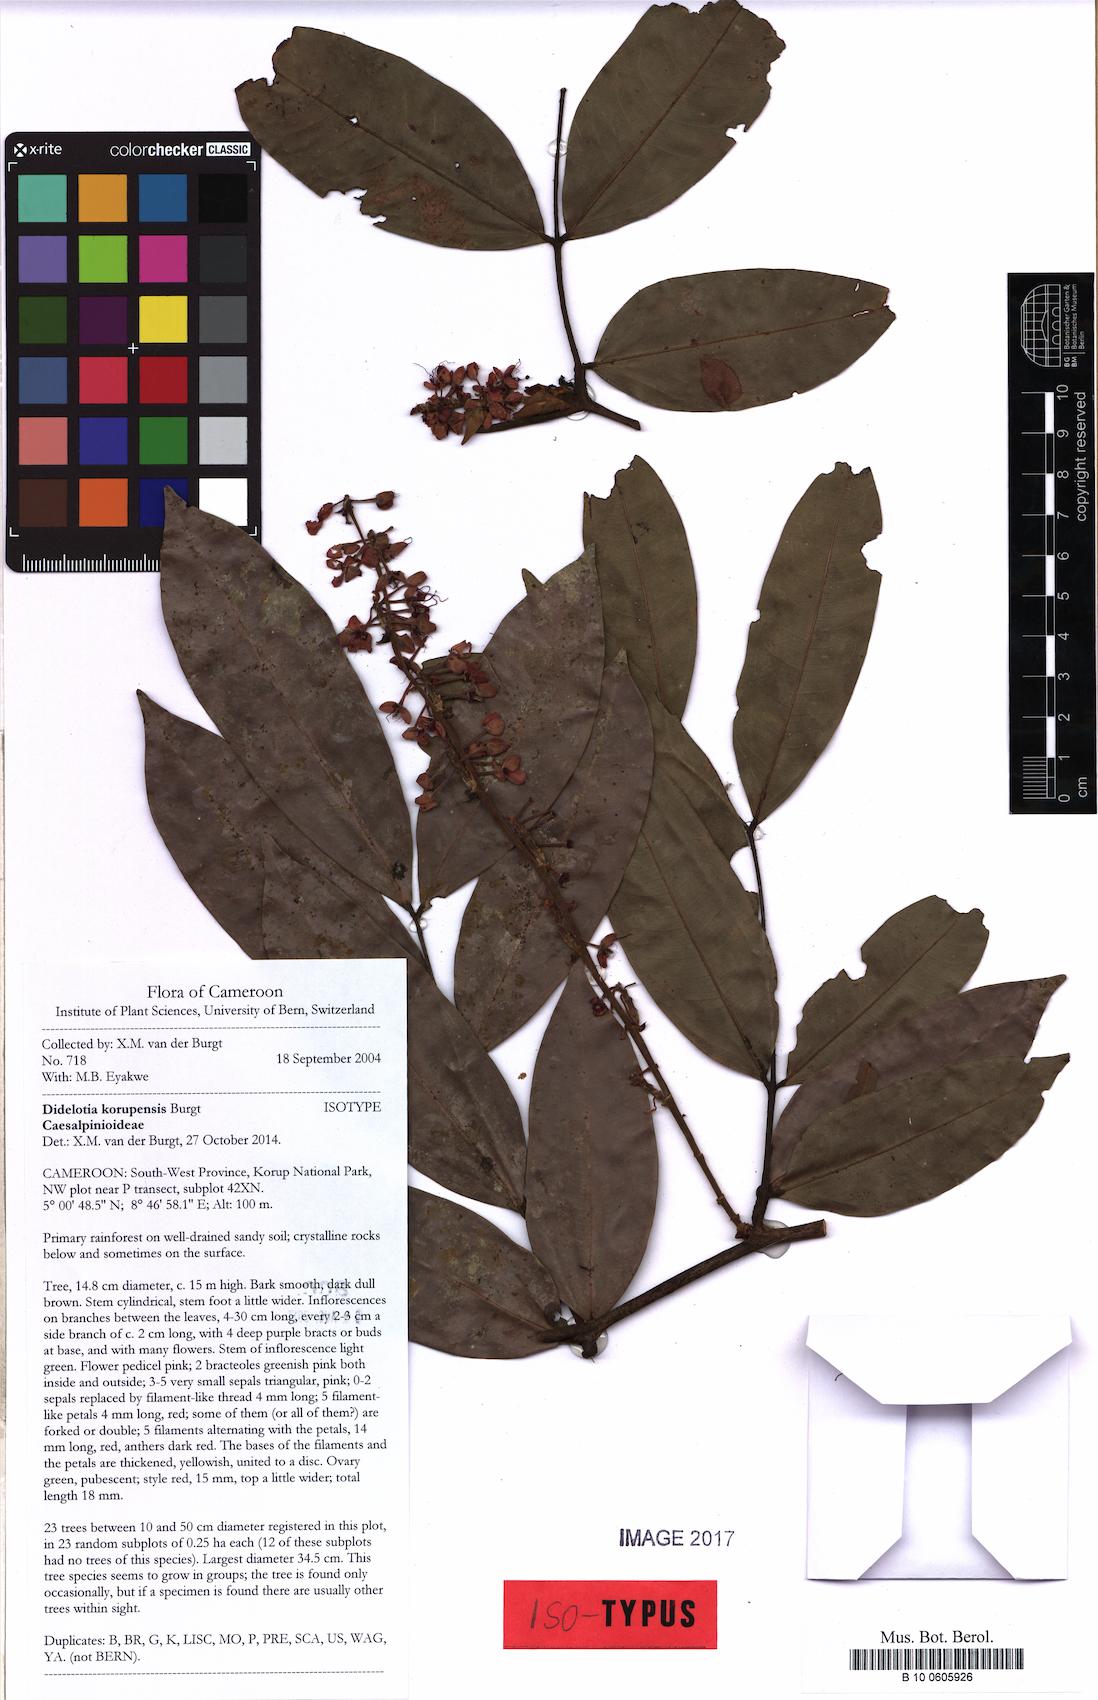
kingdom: Plantae
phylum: Tracheophyta
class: Magnoliopsida
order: Fabales
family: Fabaceae
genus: Didelotia
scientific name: Didelotia korupensis
